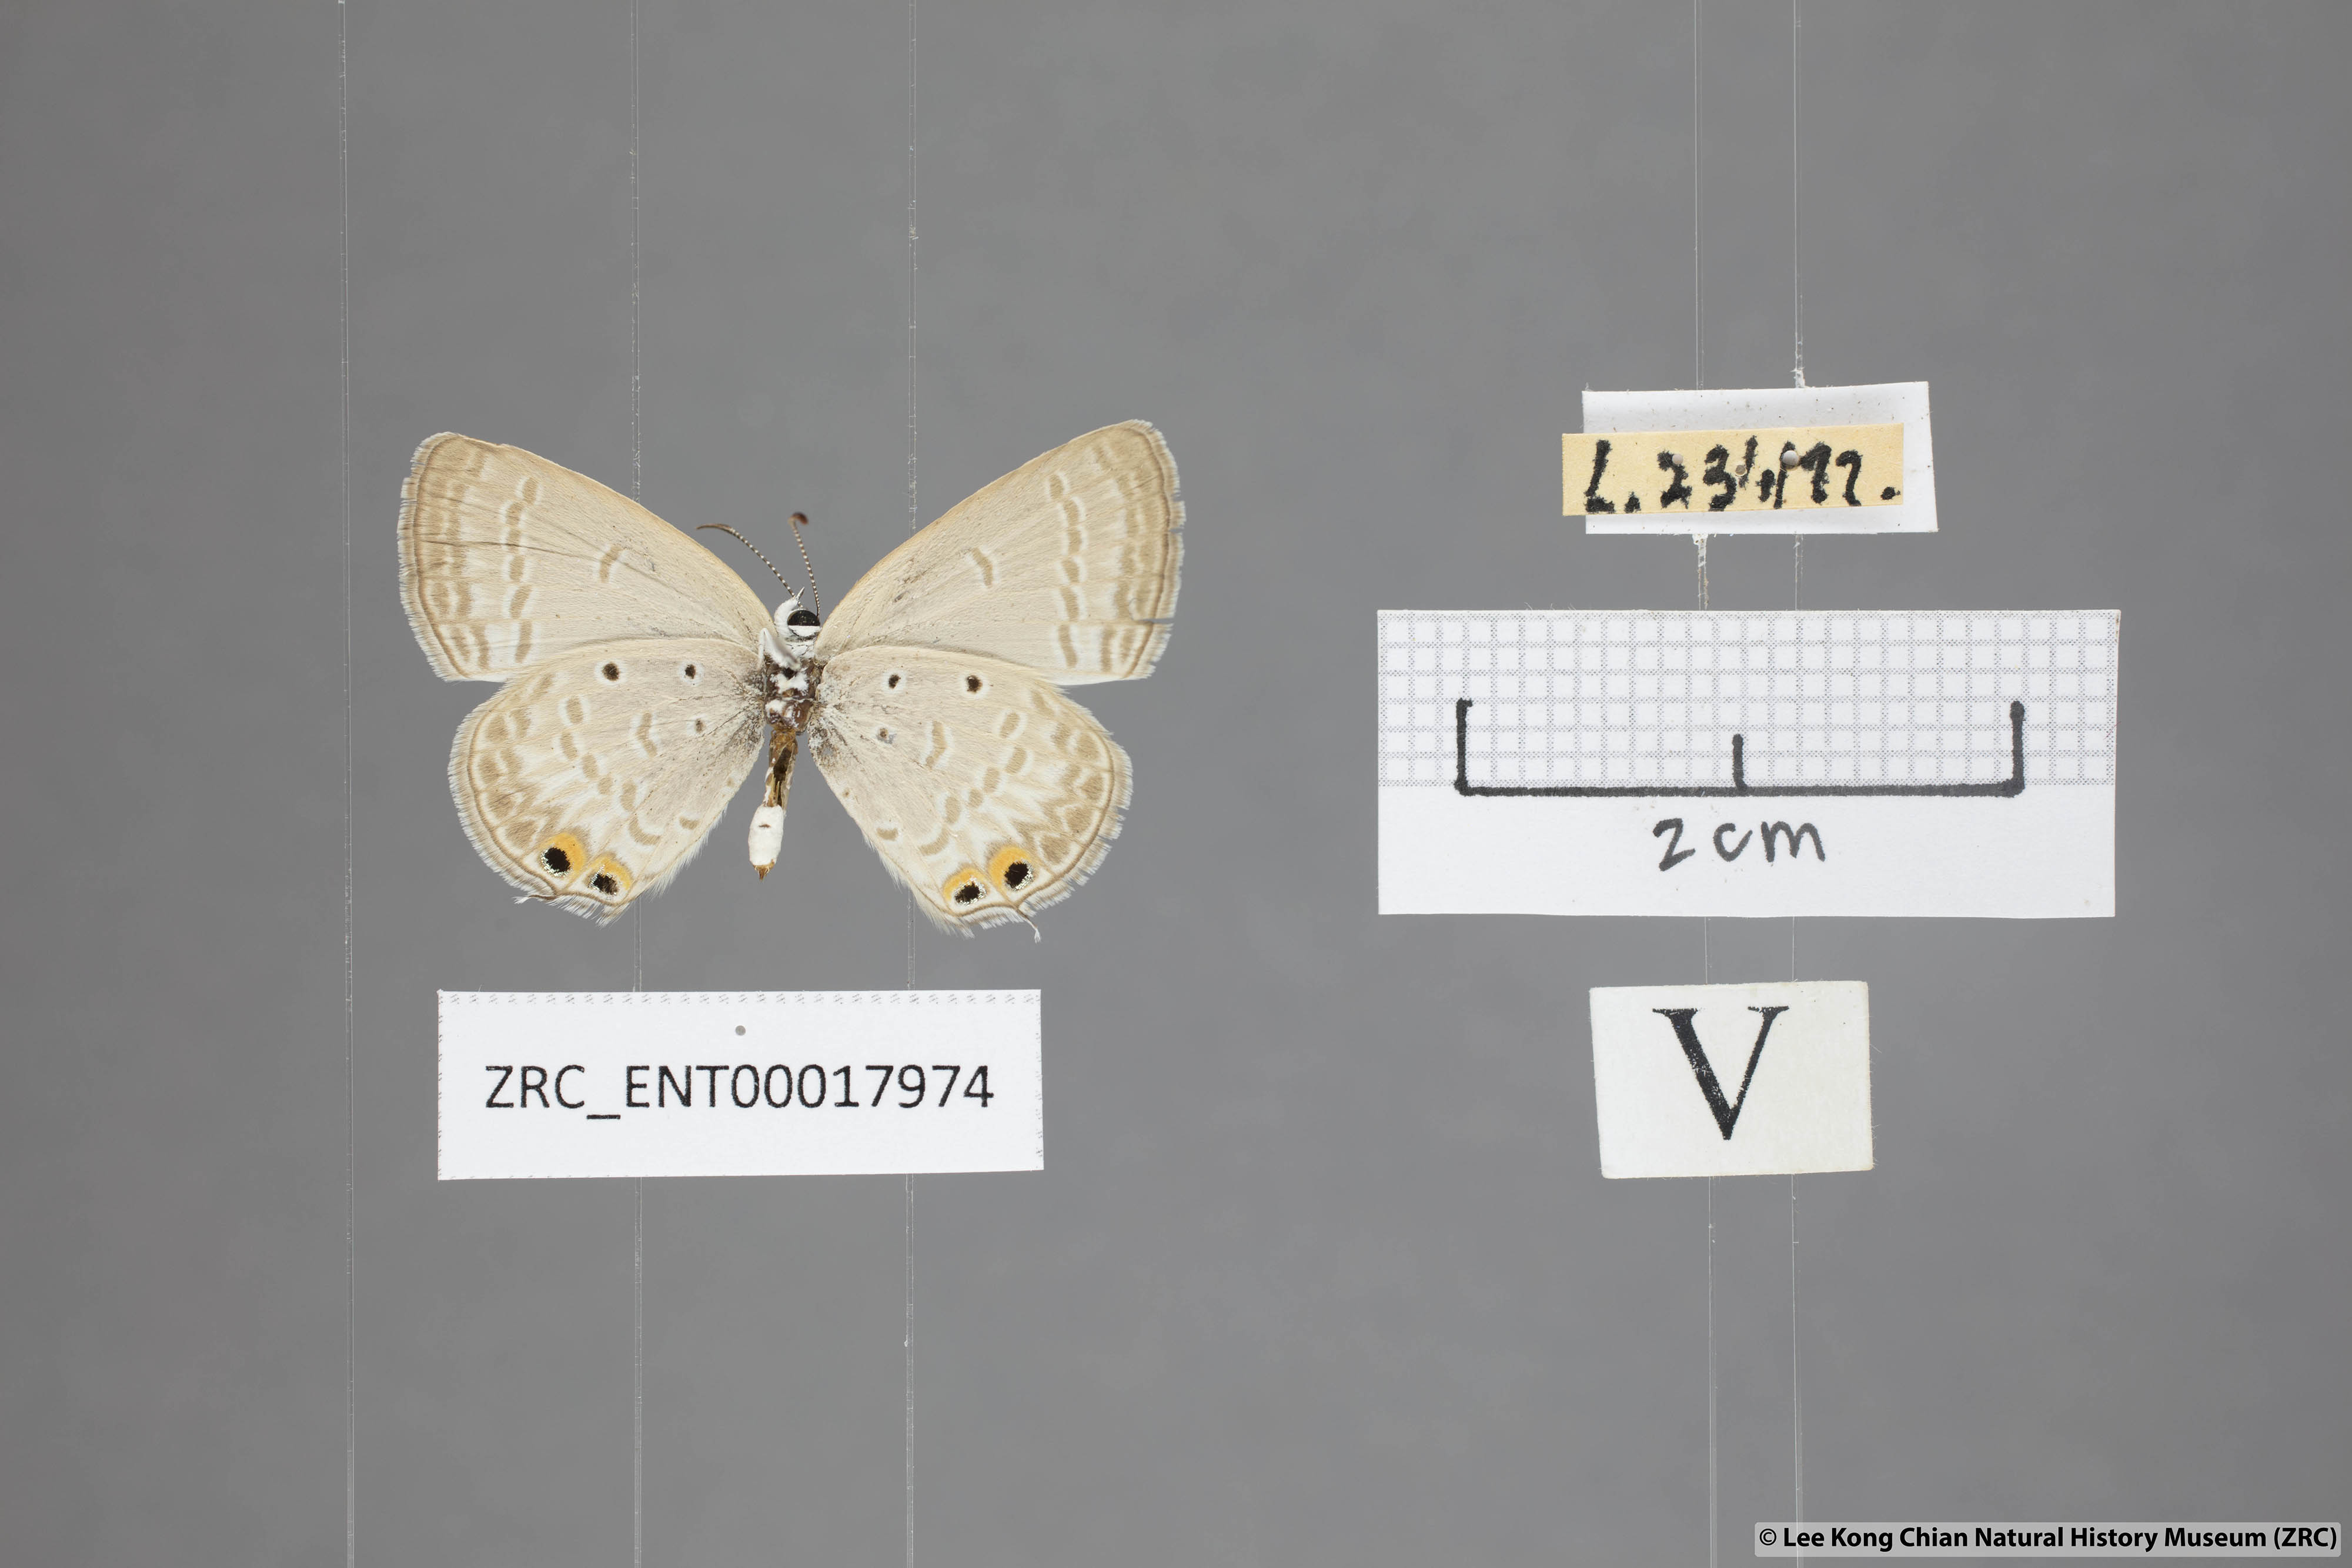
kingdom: Animalia
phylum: Arthropoda
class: Insecta
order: Lepidoptera
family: Lycaenidae
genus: Euchrysops
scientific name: Euchrysops cnejus
